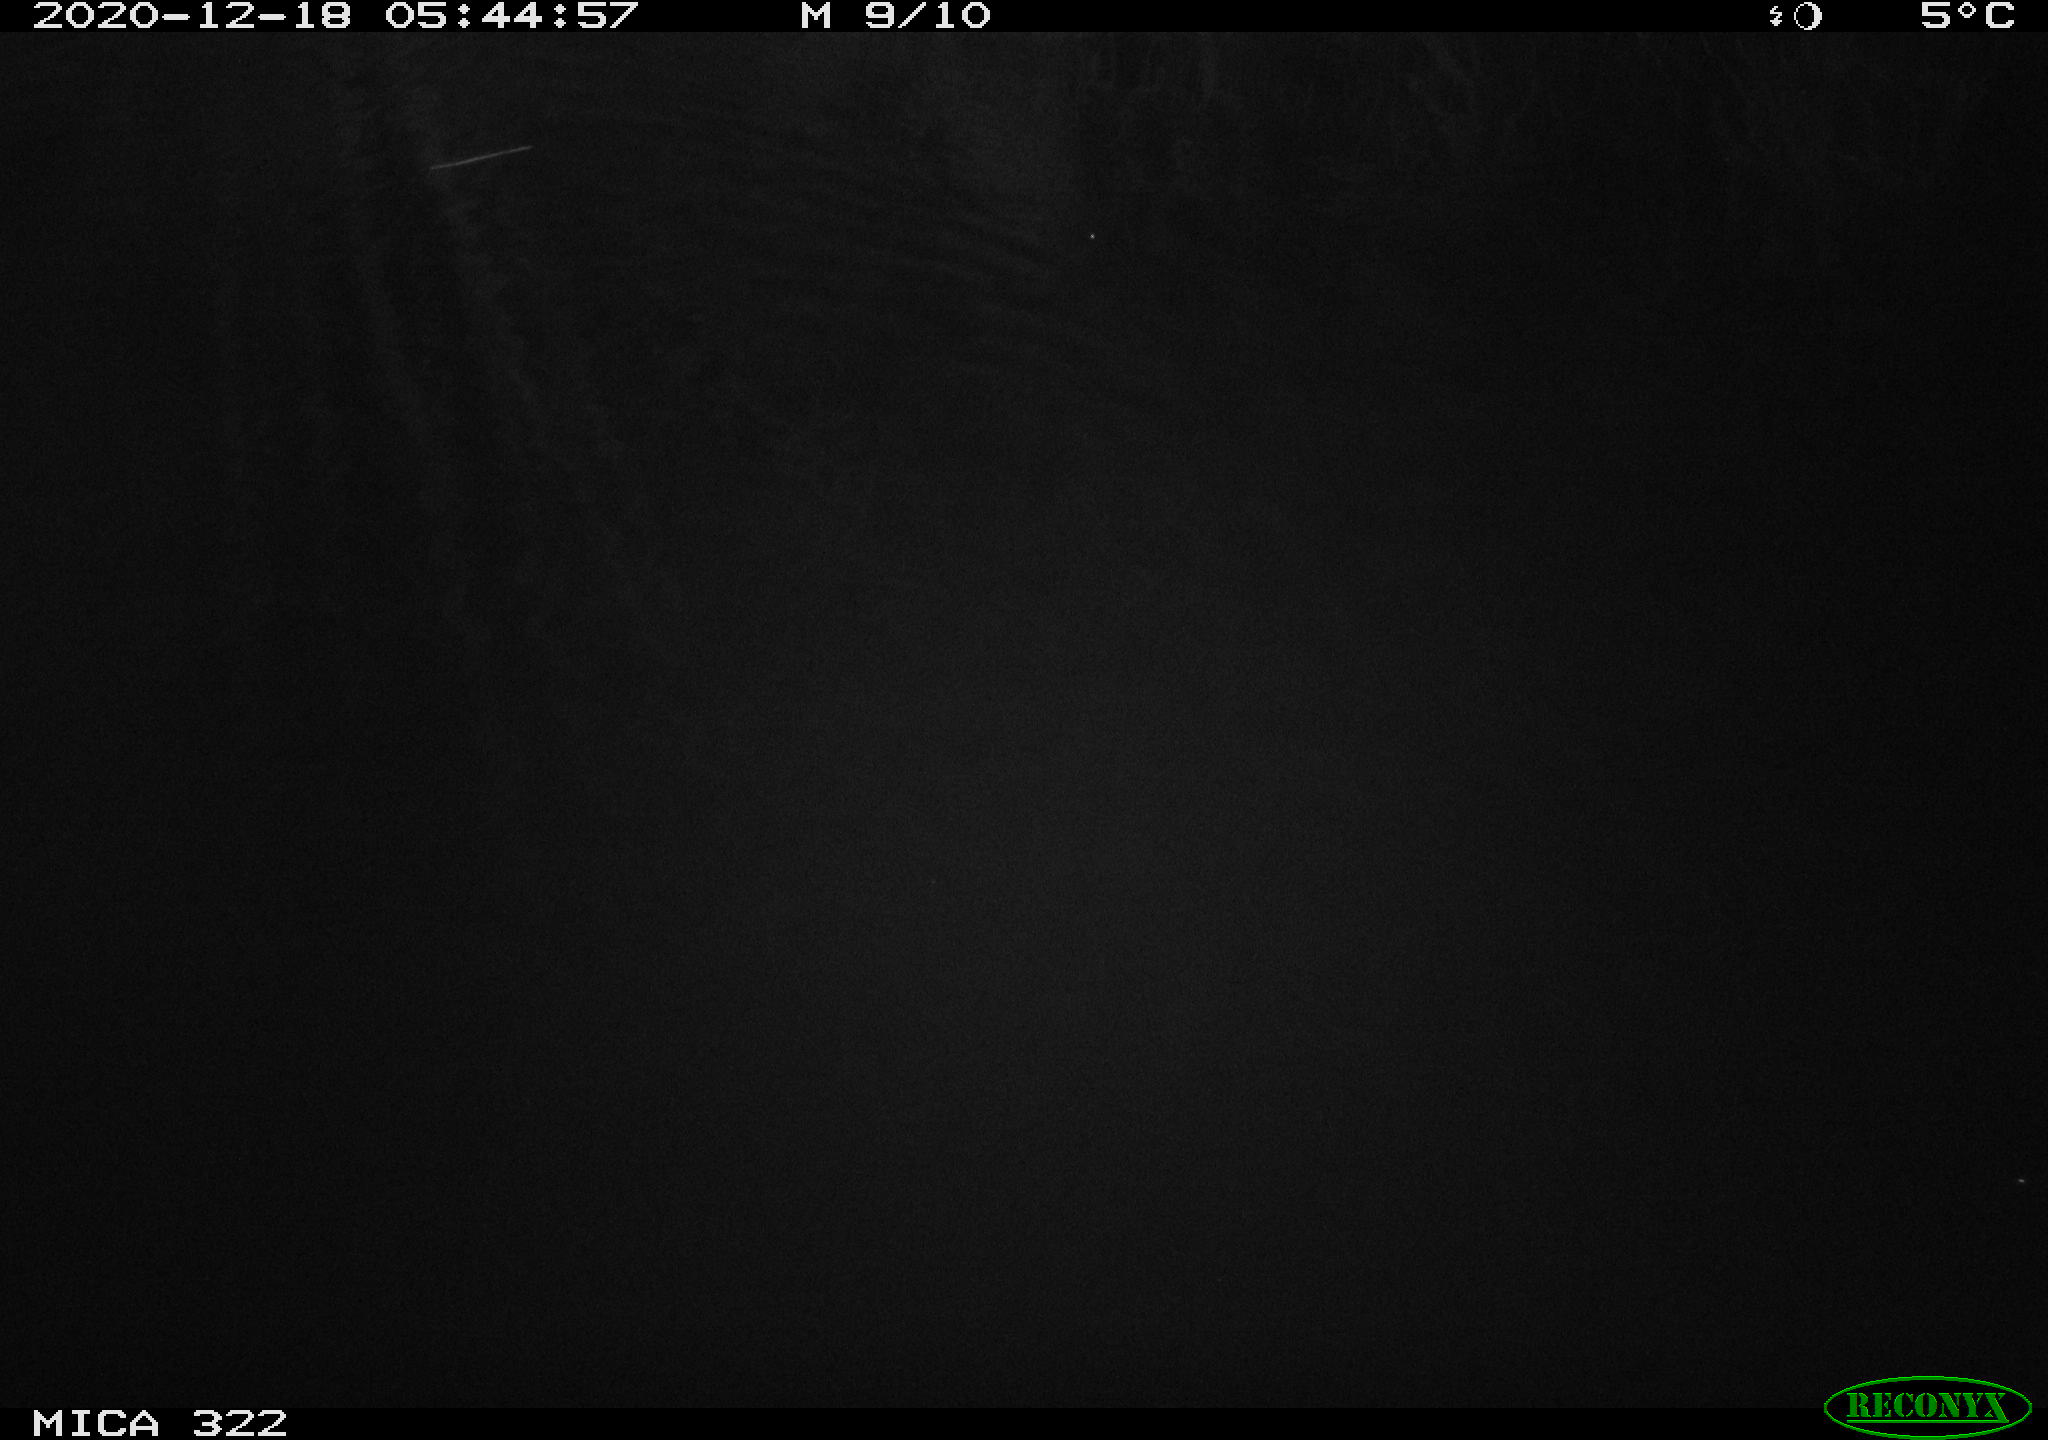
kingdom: Animalia
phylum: Chordata
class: Mammalia
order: Rodentia
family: Muridae
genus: Rattus
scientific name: Rattus norvegicus
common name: Brown rat
